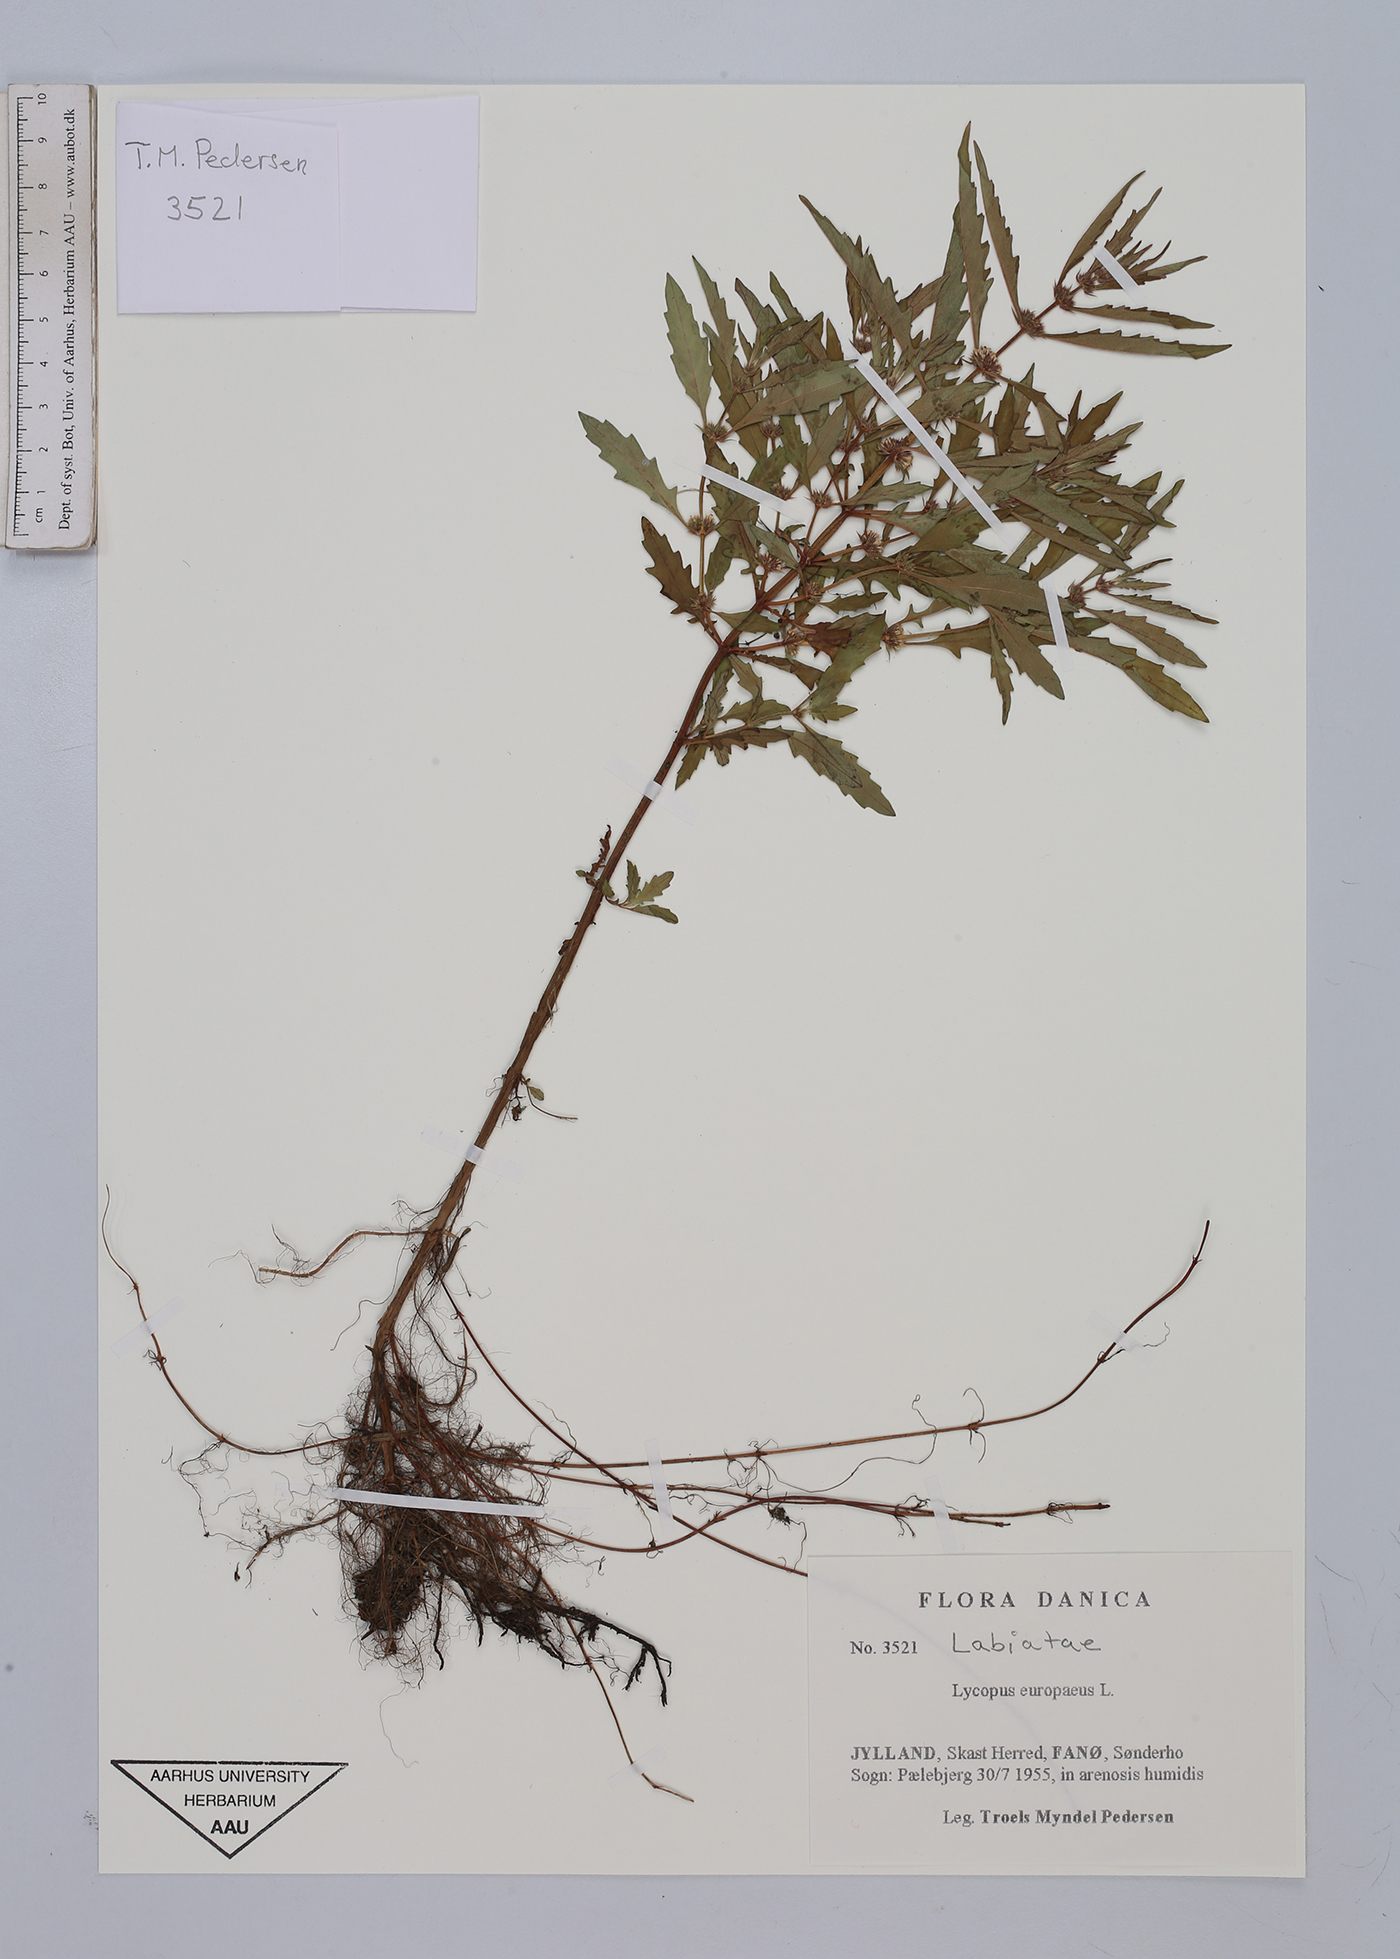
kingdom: Plantae
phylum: Tracheophyta
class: Magnoliopsida
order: Lamiales
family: Lamiaceae
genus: Lycopus
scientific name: Lycopus europaeus
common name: European bugleweed
